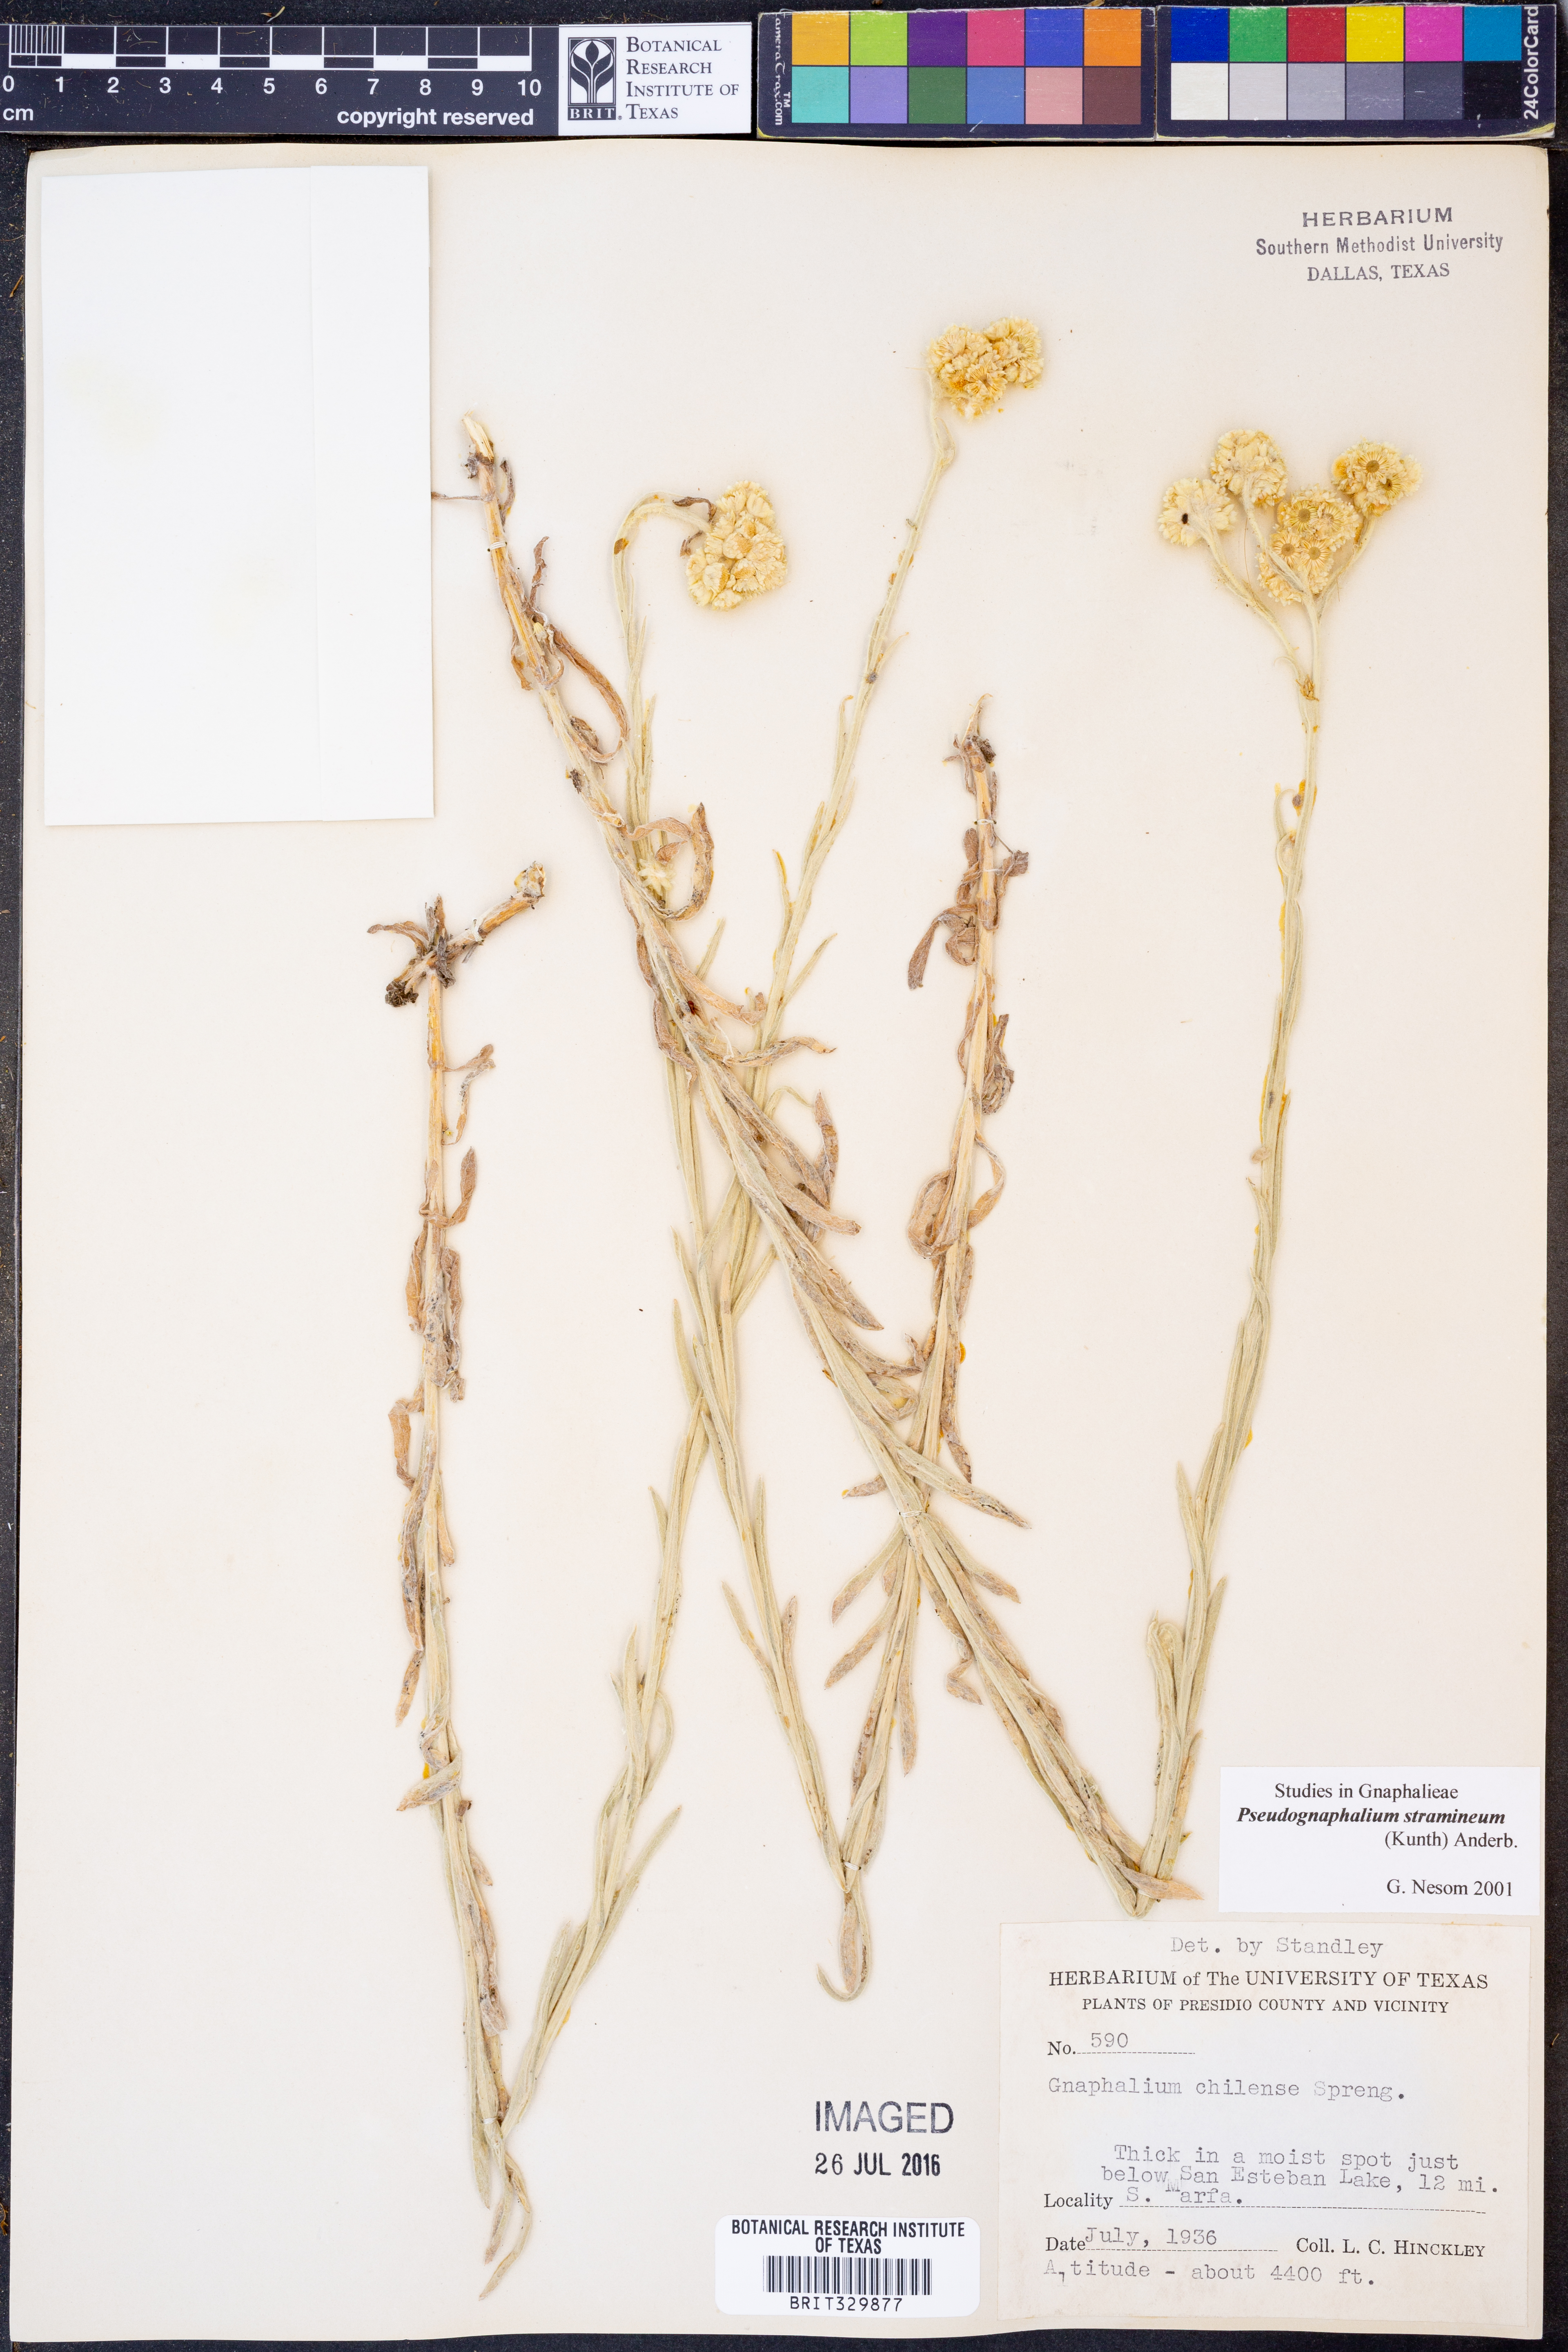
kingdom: Plantae
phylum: Tracheophyta
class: Magnoliopsida
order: Asterales
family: Asteraceae
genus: Pseudognaphalium
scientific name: Pseudognaphalium stramineum
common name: Cotton-batting-plant
